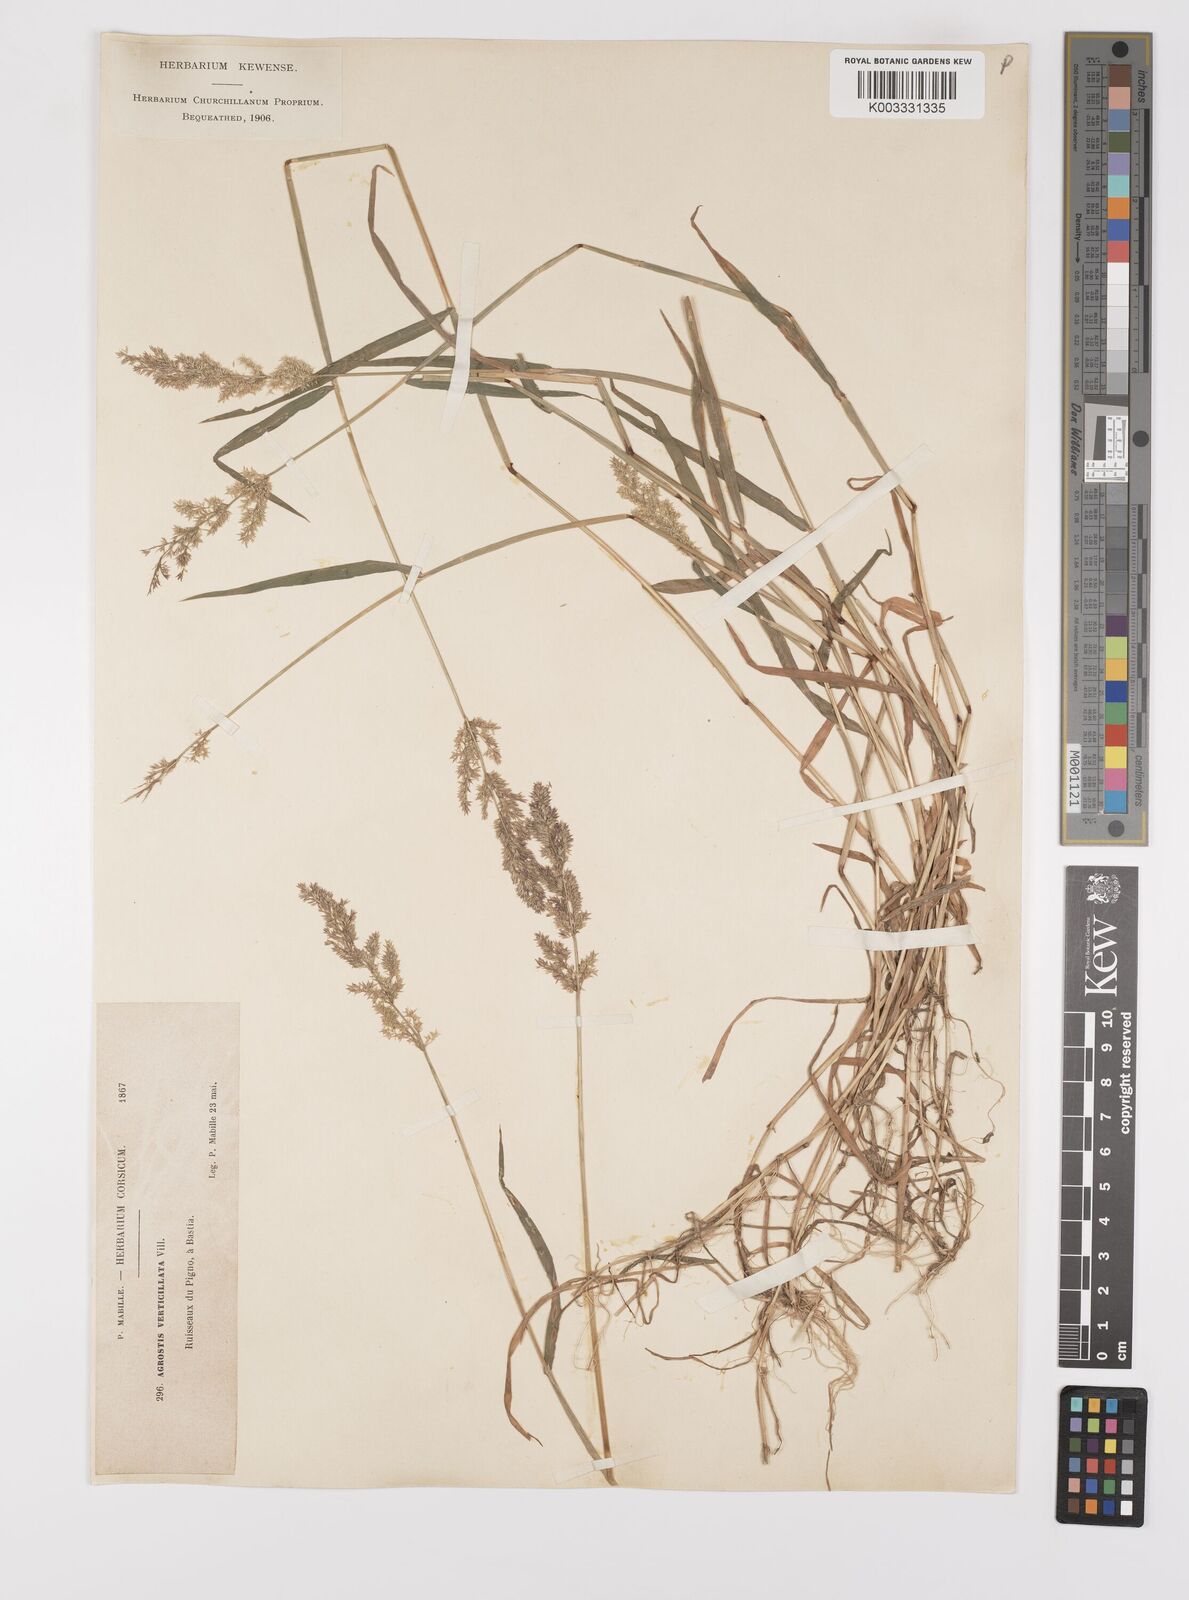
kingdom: Plantae
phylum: Tracheophyta
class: Liliopsida
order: Poales
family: Poaceae
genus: Polypogon
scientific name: Polypogon viridis
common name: Water bent
